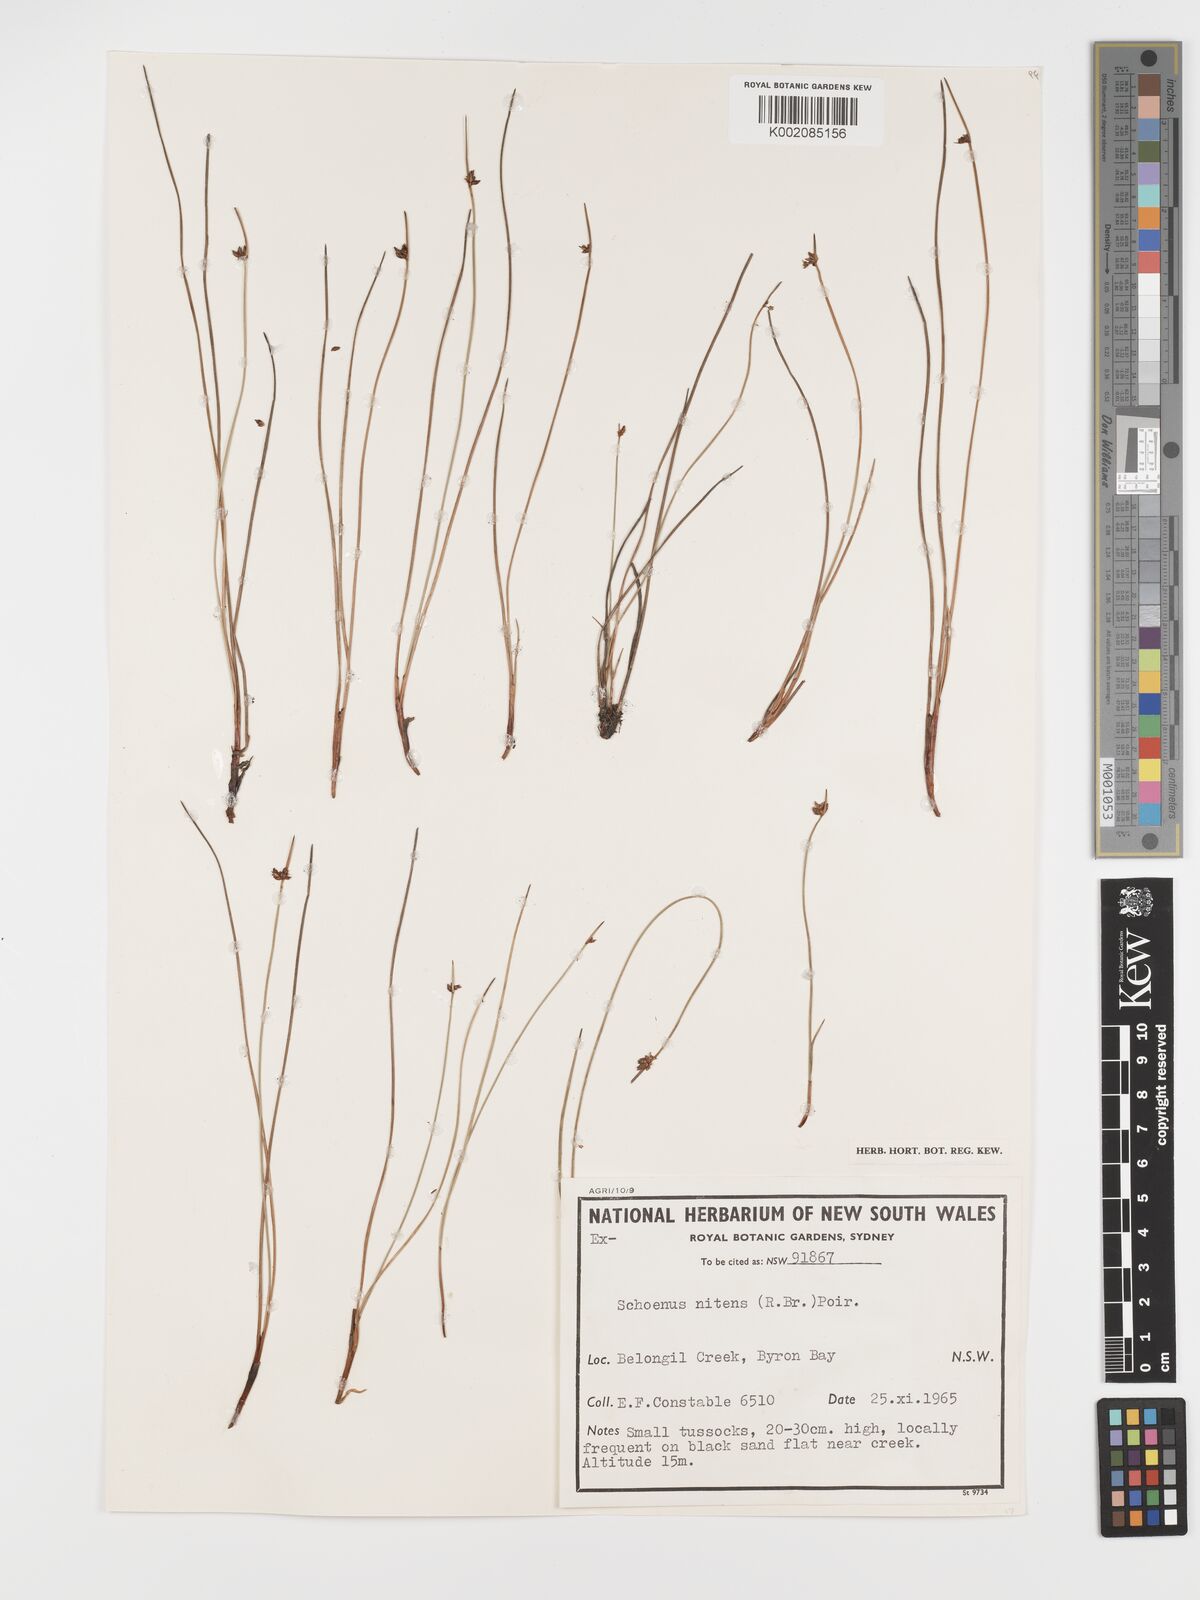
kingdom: Plantae
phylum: Tracheophyta
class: Liliopsida
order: Poales
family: Cyperaceae
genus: Schoenus
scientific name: Schoenus nitens
